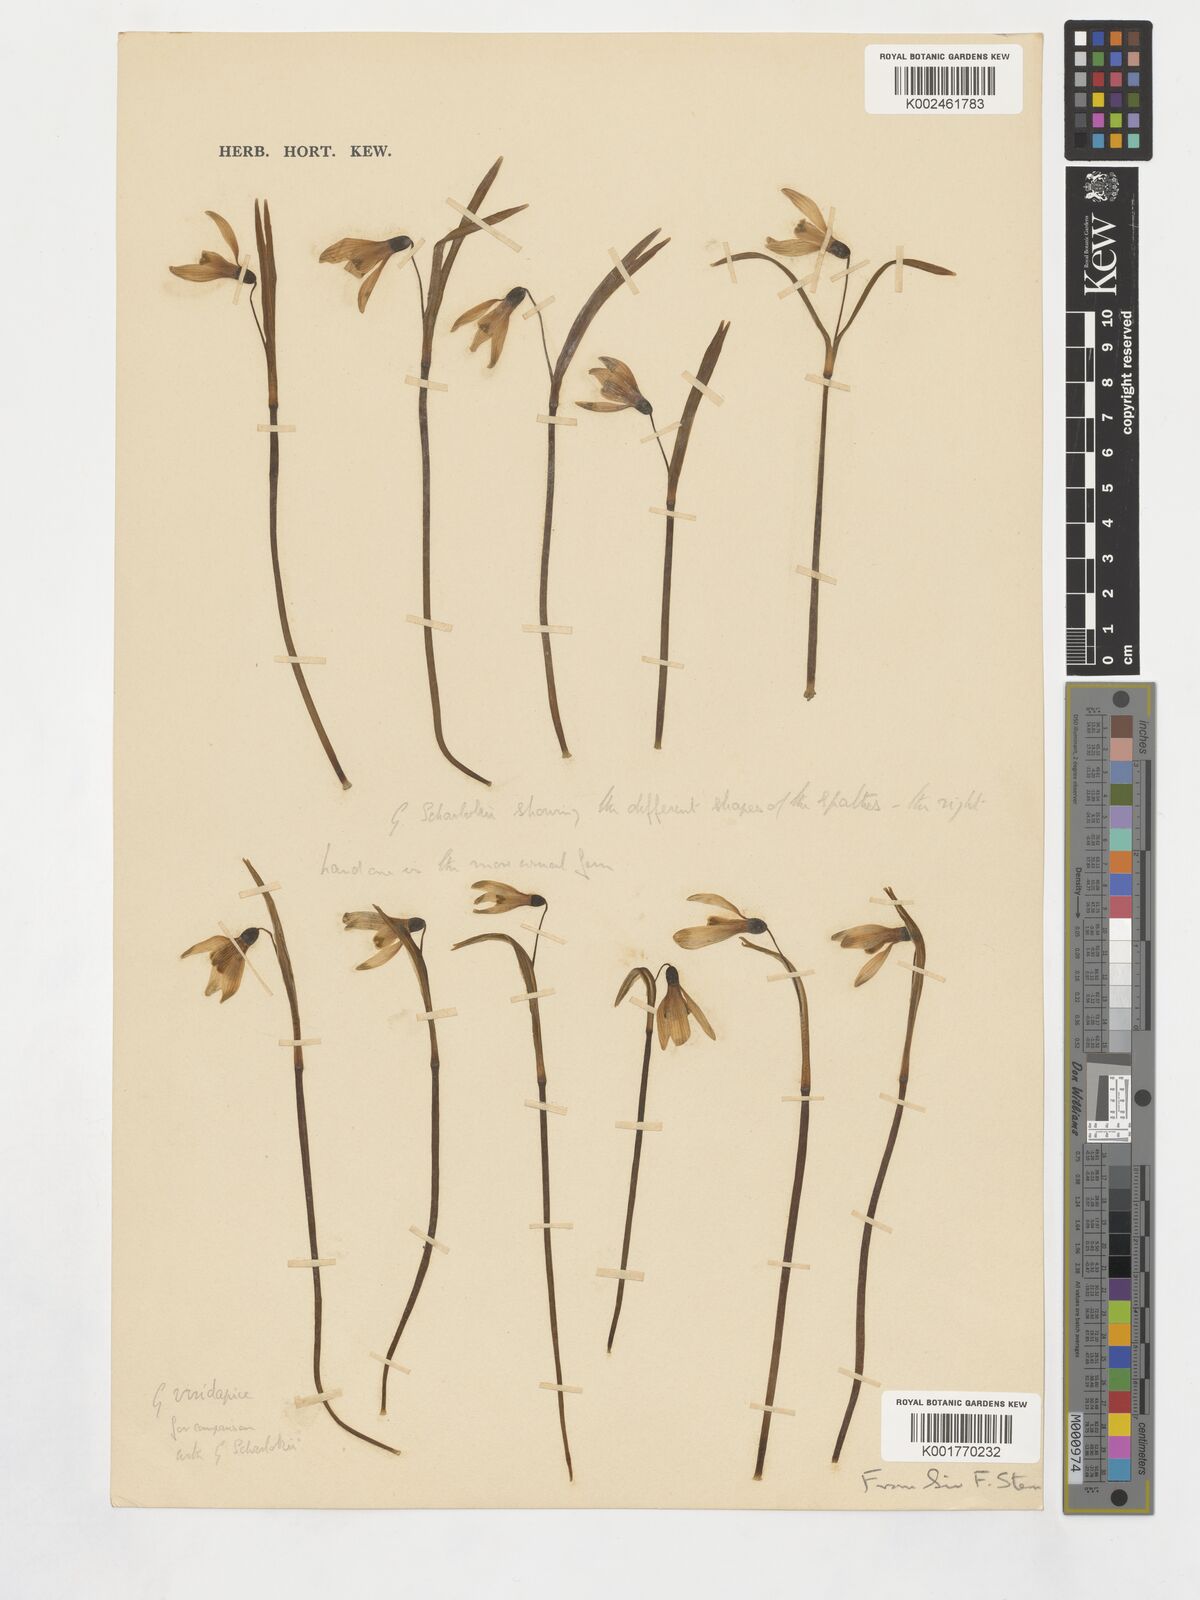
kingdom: Plantae
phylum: Tracheophyta
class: Liliopsida
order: Asparagales
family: Amaryllidaceae
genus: Galanthus
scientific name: Galanthus
